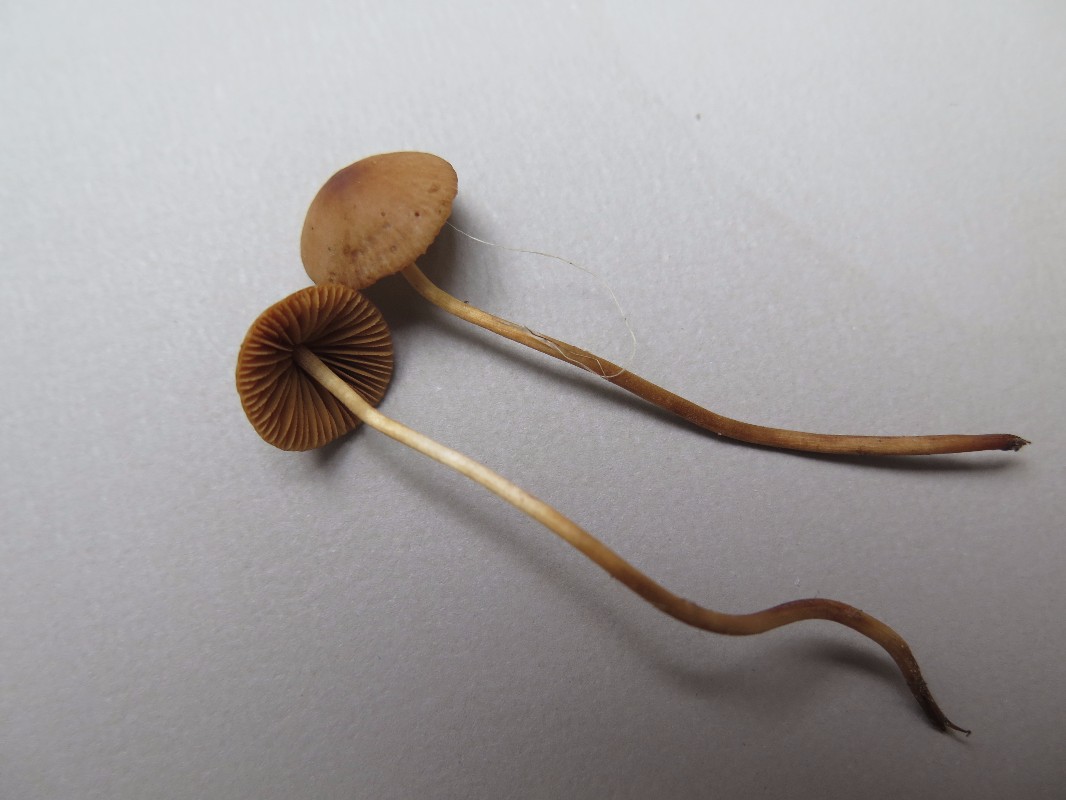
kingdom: Fungi
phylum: Basidiomycota
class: Agaricomycetes
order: Agaricales
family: Bolbitiaceae
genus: Conocybe
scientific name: Conocybe
